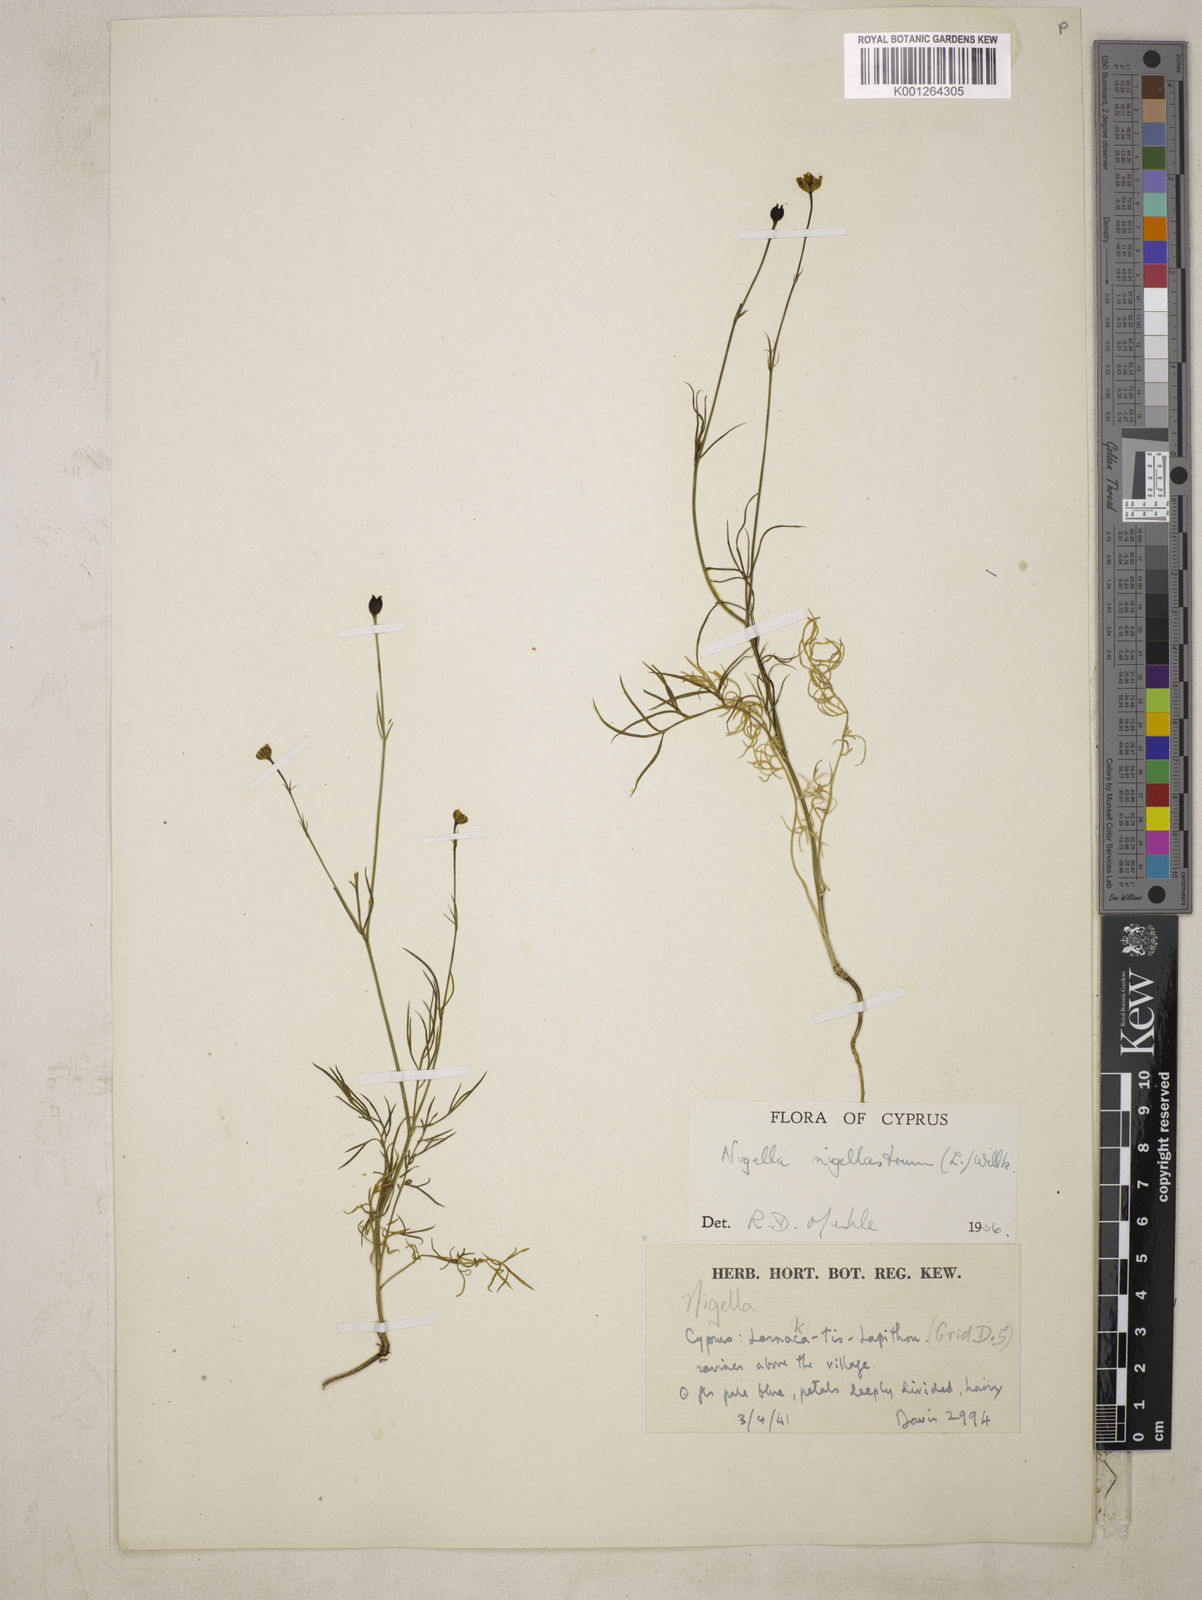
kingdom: Plantae
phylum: Tracheophyta
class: Magnoliopsida
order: Ranunculales
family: Ranunculaceae
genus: Garidella
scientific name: Garidella nigellastrum
